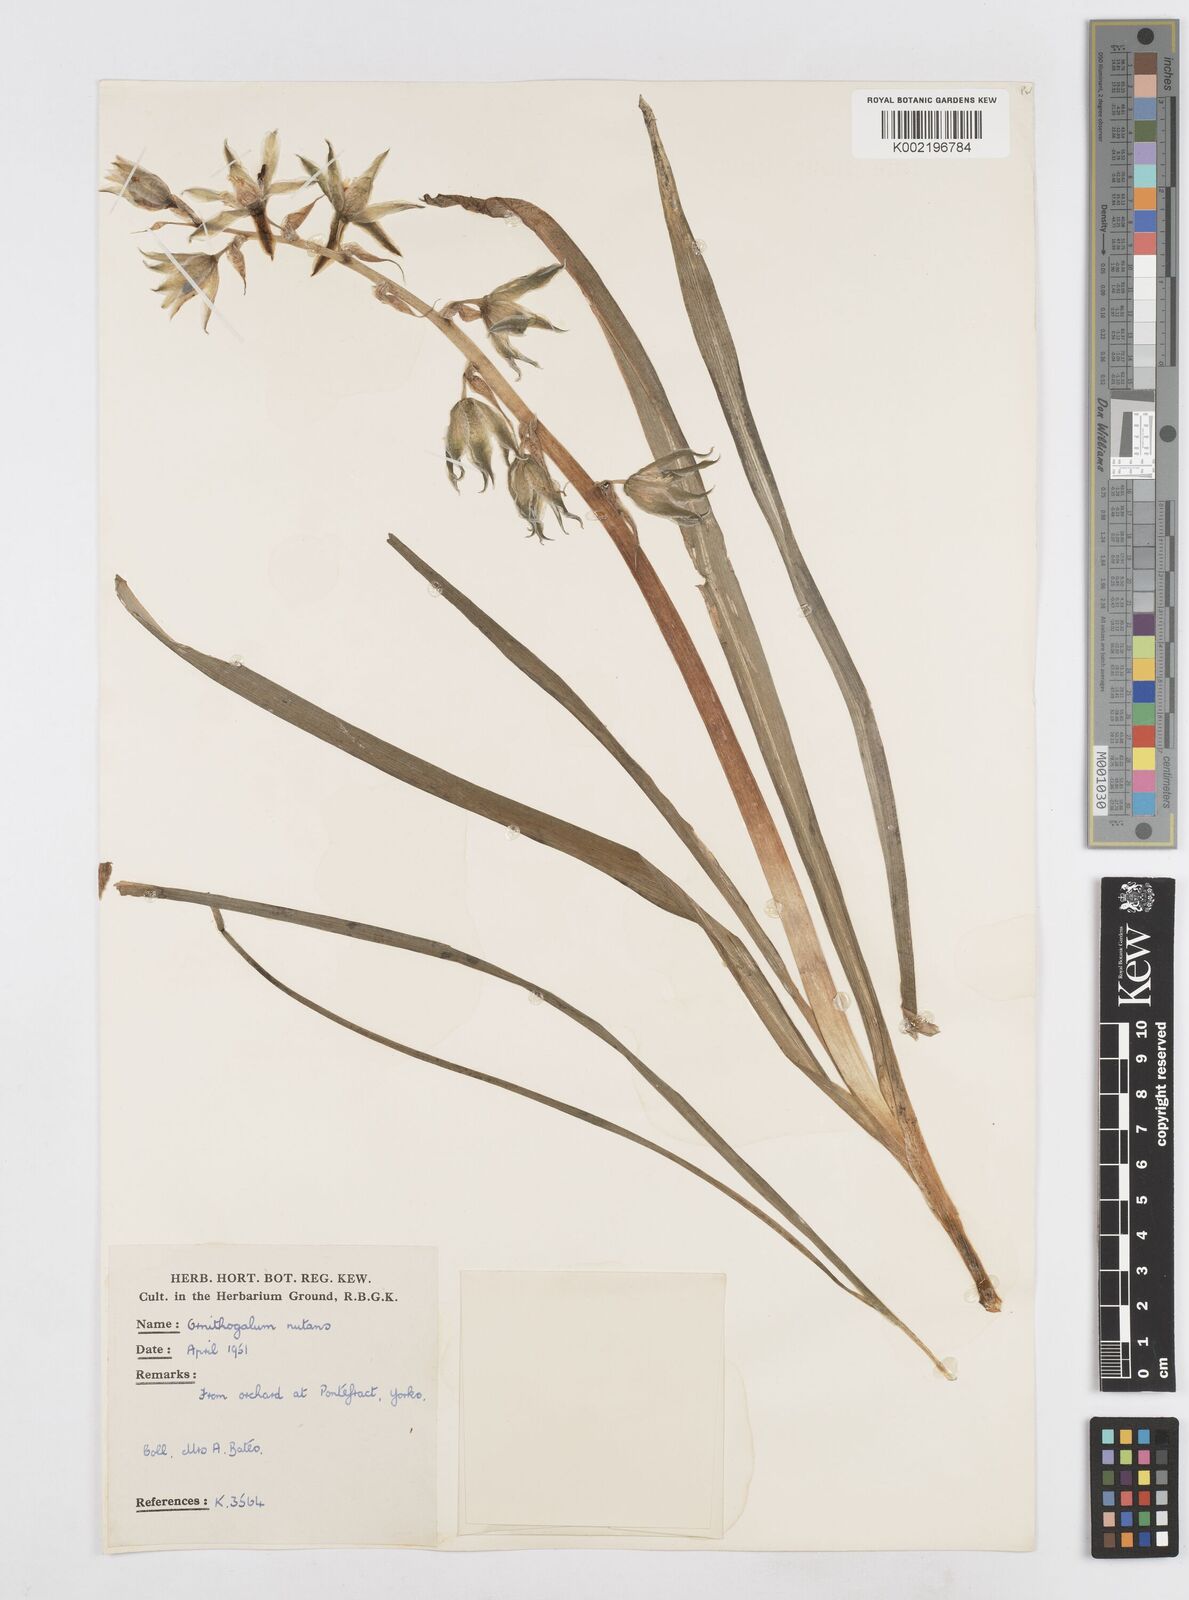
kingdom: Plantae
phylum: Tracheophyta
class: Liliopsida
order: Asparagales
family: Asparagaceae
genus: Ornithogalum
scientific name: Ornithogalum nutans
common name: Drooping star-of-bethlehem
